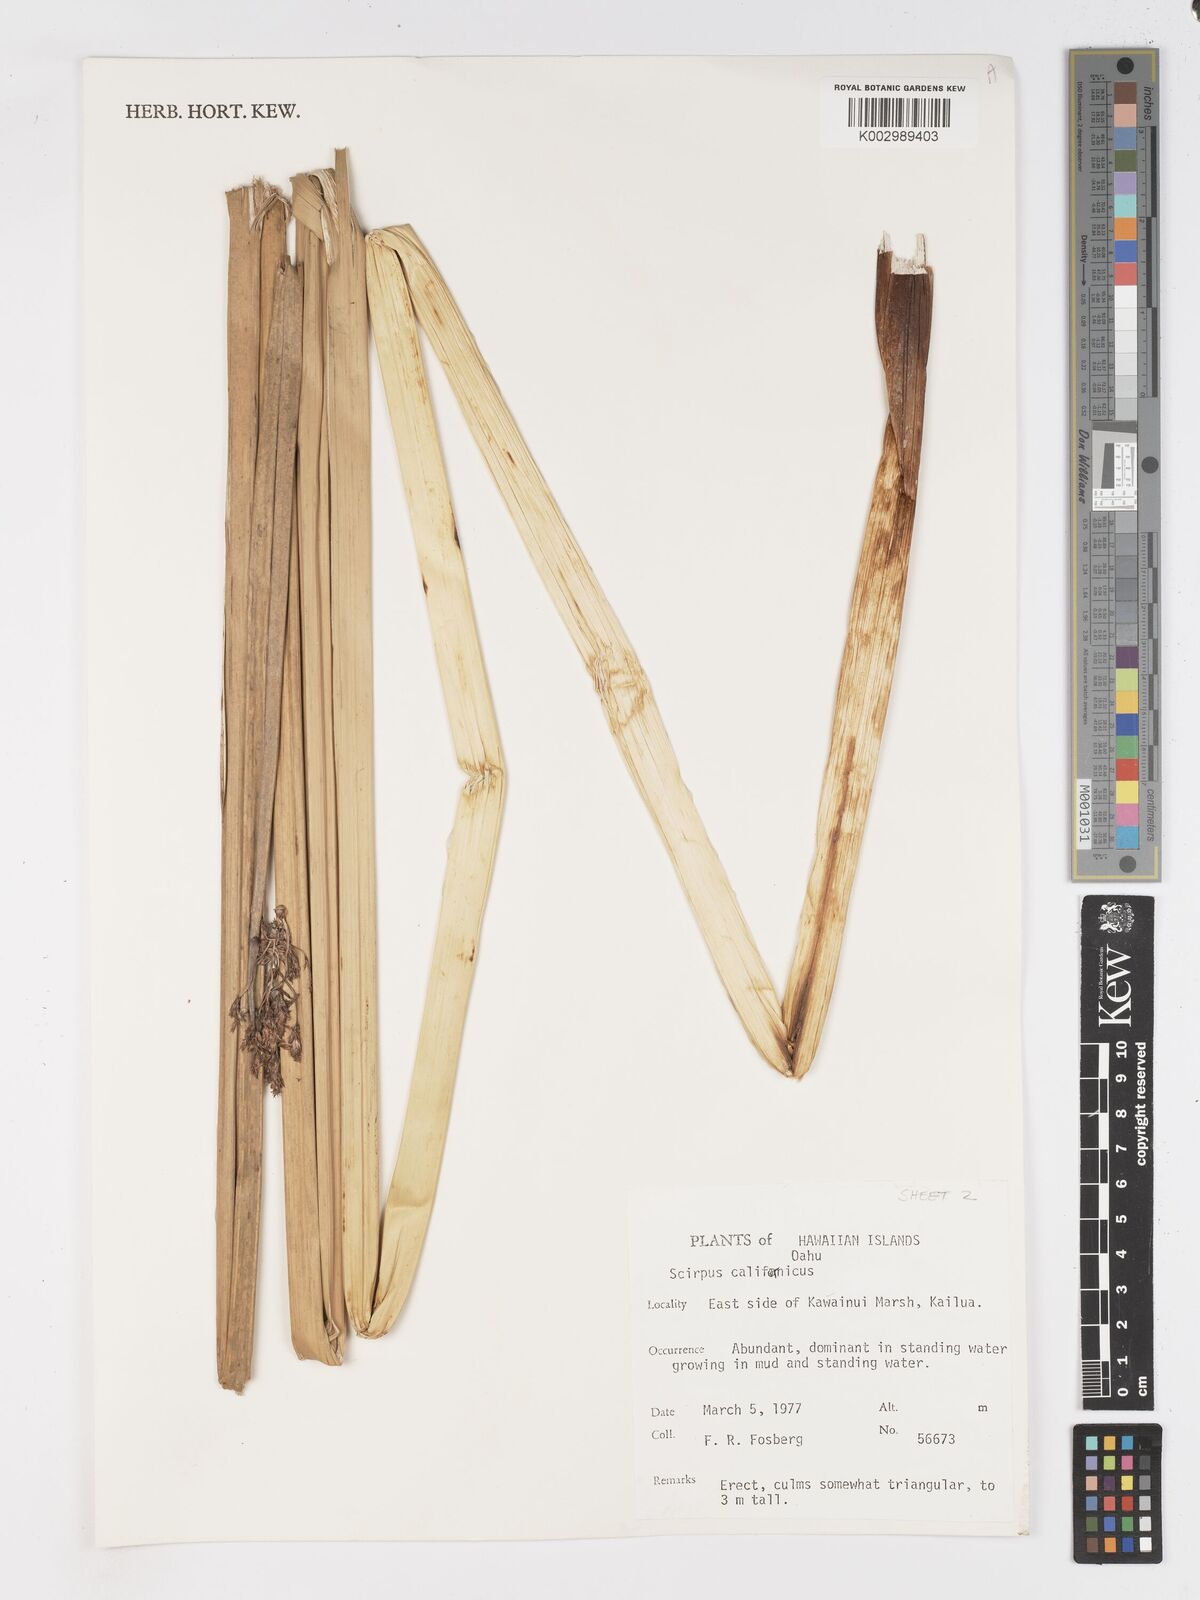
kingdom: Plantae
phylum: Tracheophyta
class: Liliopsida
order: Poales
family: Cyperaceae
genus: Schoenoplectus
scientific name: Schoenoplectus californicus
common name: California bulrush
